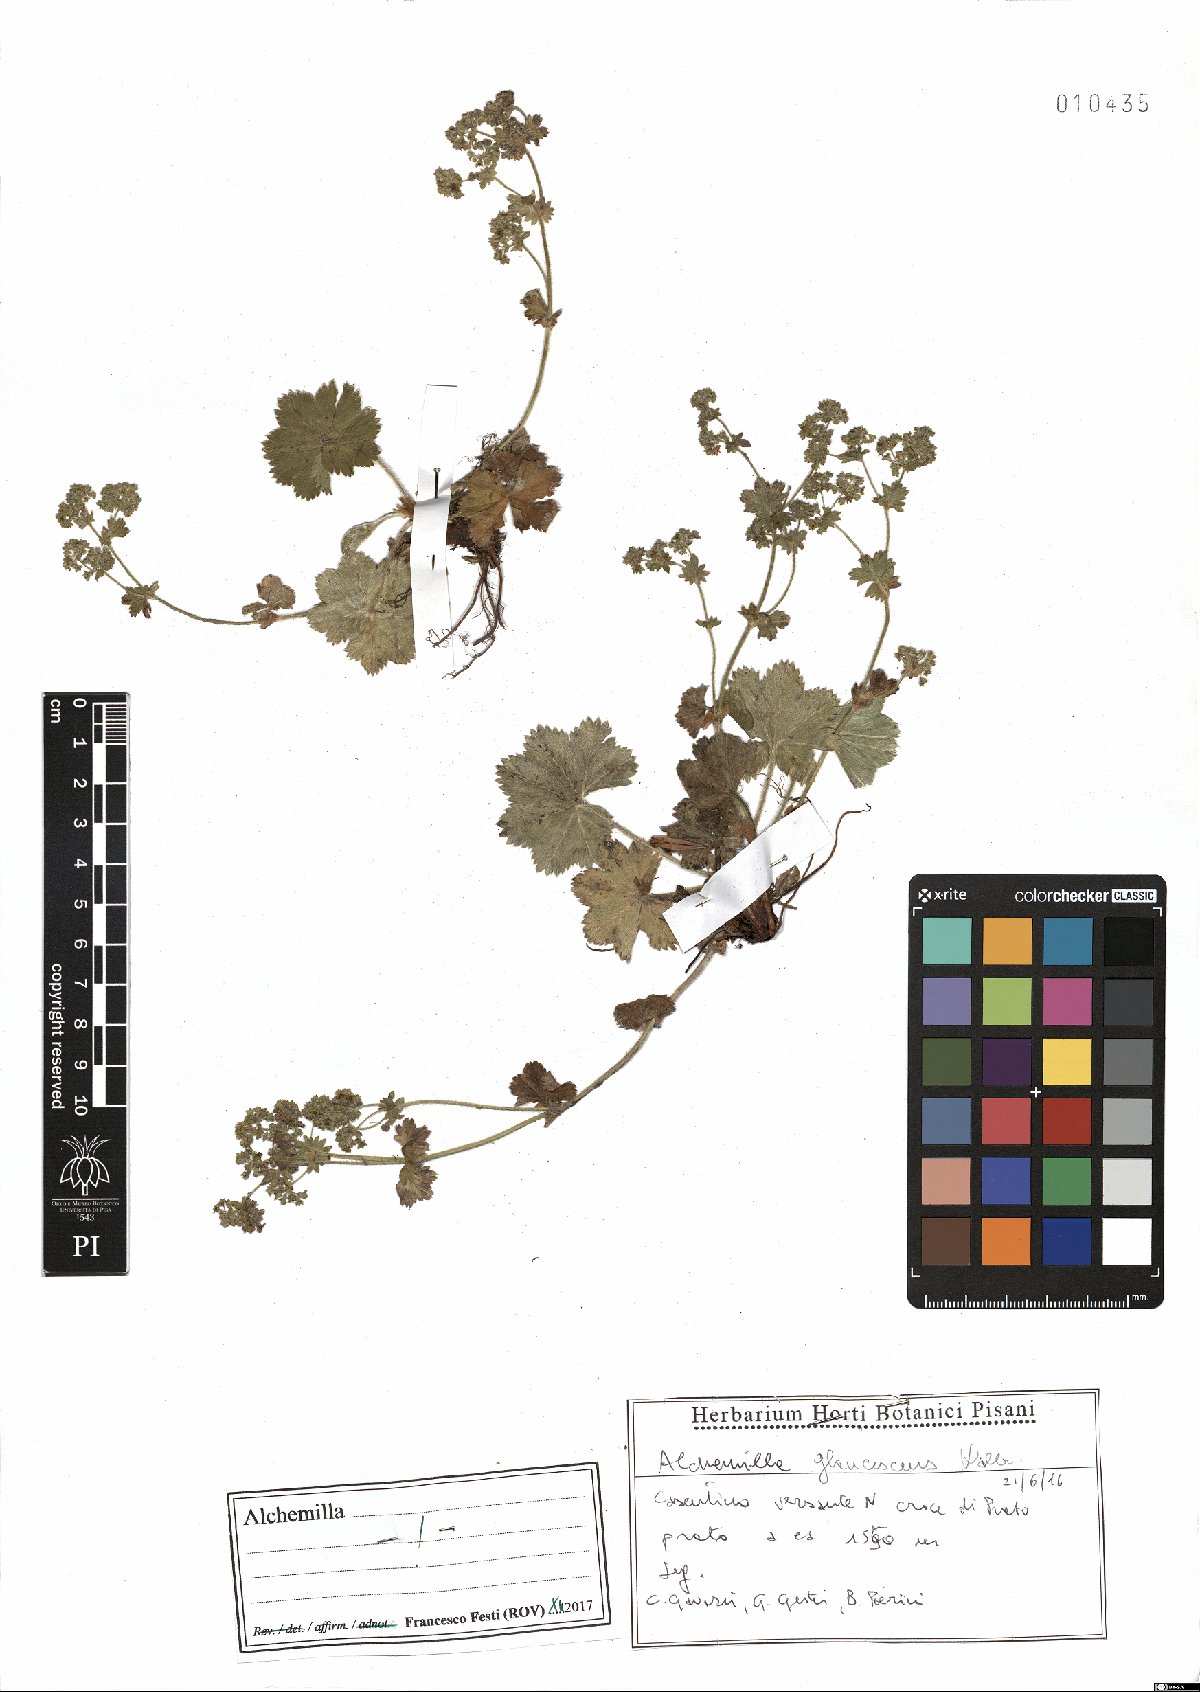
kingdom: Plantae
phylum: Tracheophyta
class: Magnoliopsida
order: Rosales
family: Rosaceae
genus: Alchemilla
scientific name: Alchemilla glaucescens
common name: Silky lady's mantle
